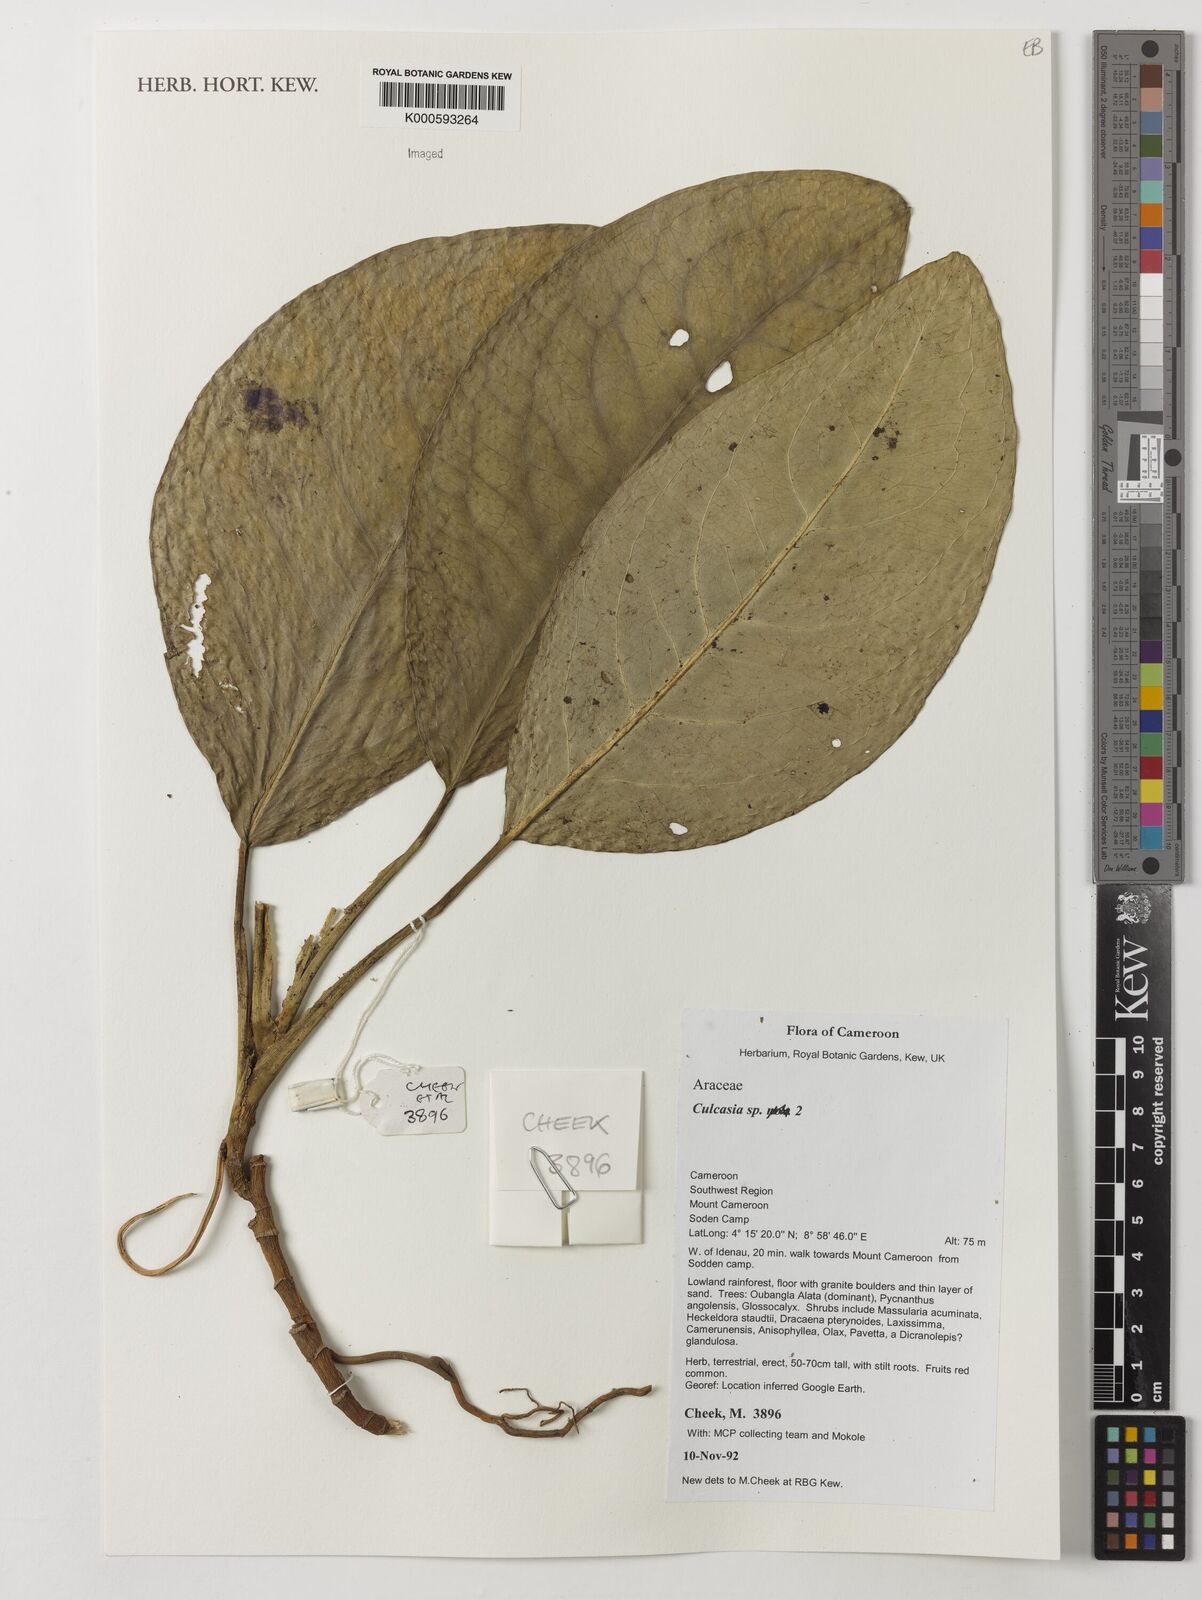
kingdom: Plantae
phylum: Tracheophyta
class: Liliopsida
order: Alismatales
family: Araceae
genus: Culcasia
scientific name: Culcasia
